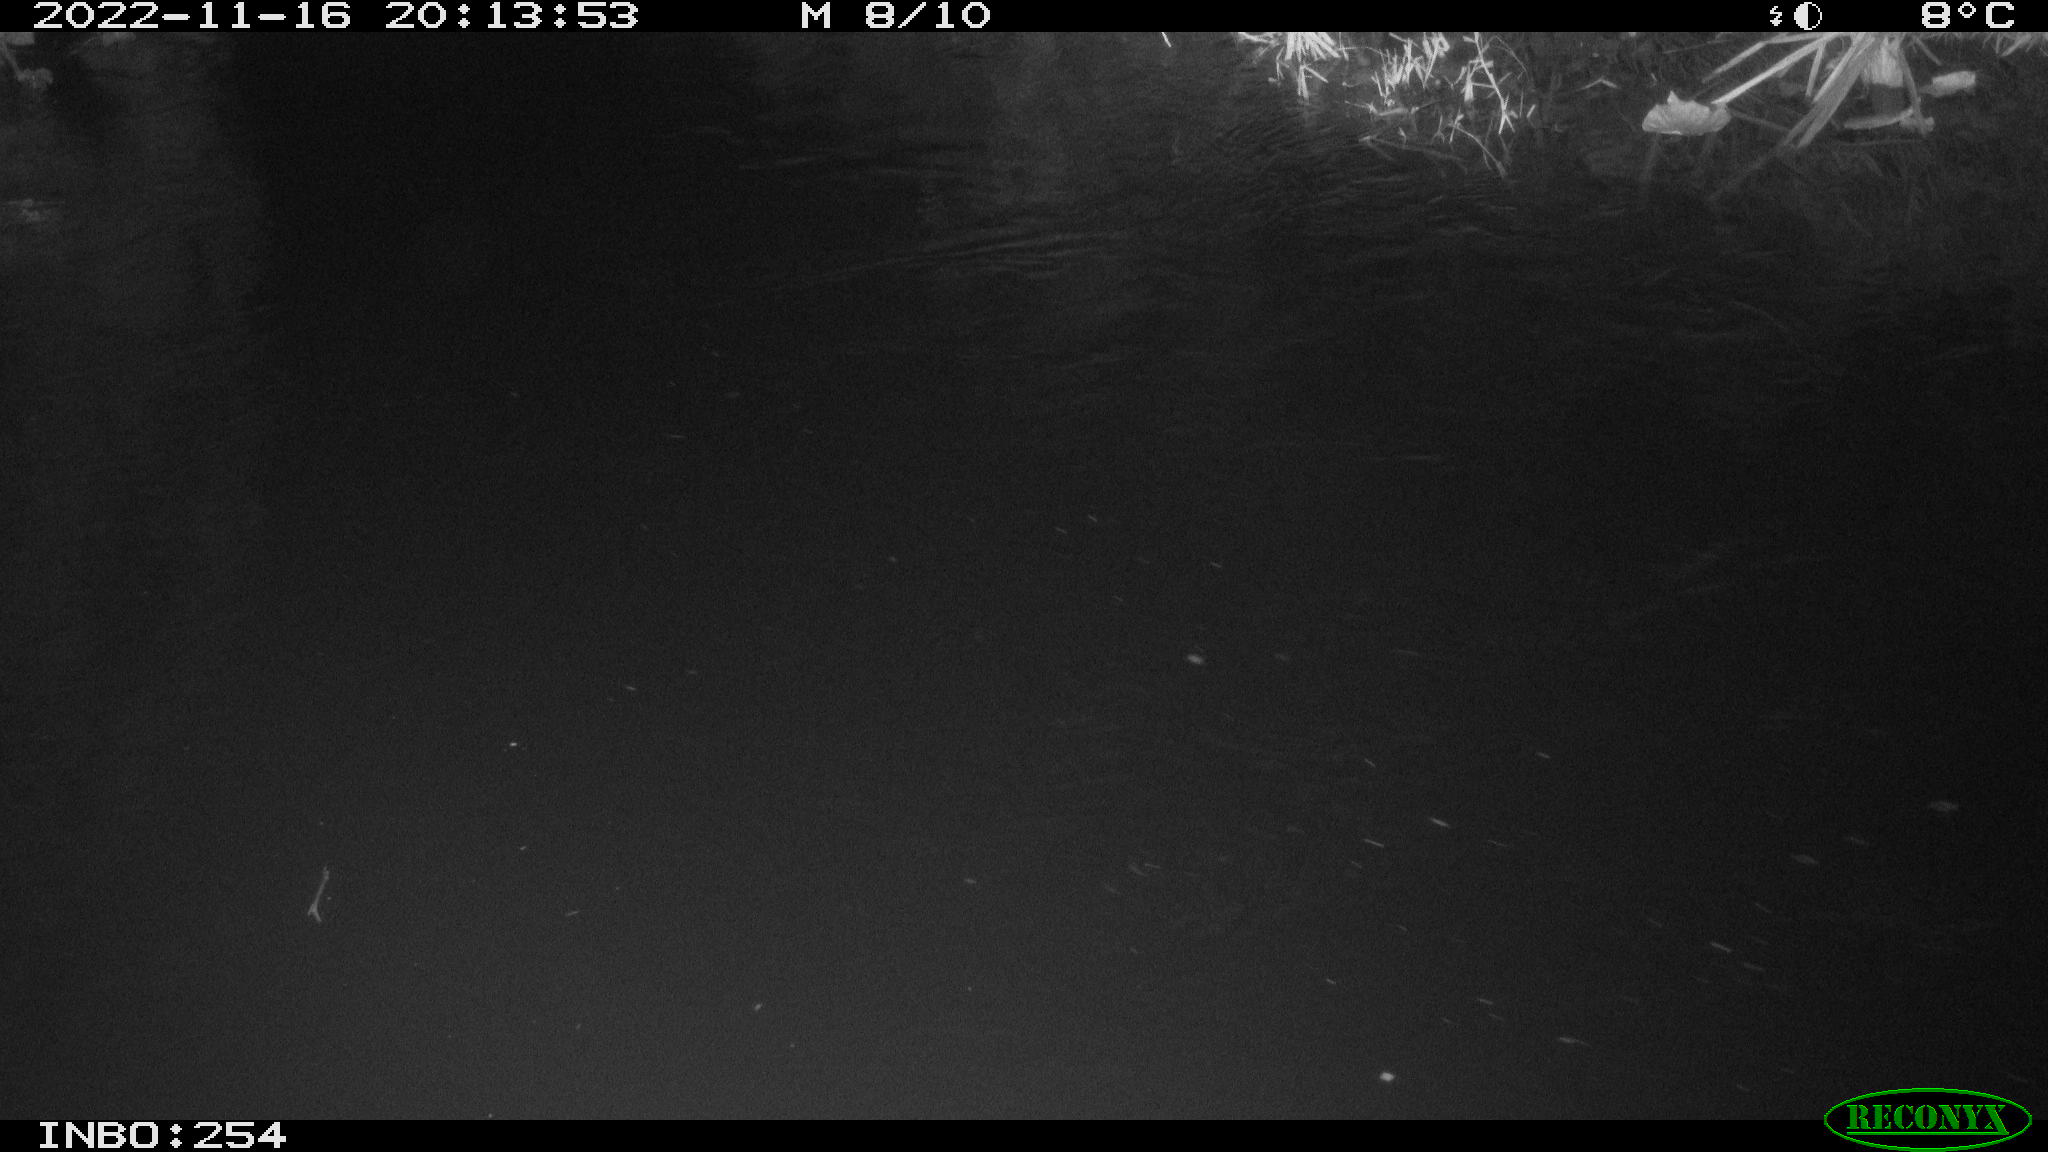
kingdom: Animalia
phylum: Chordata
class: Mammalia
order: Rodentia
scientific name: Rodentia
